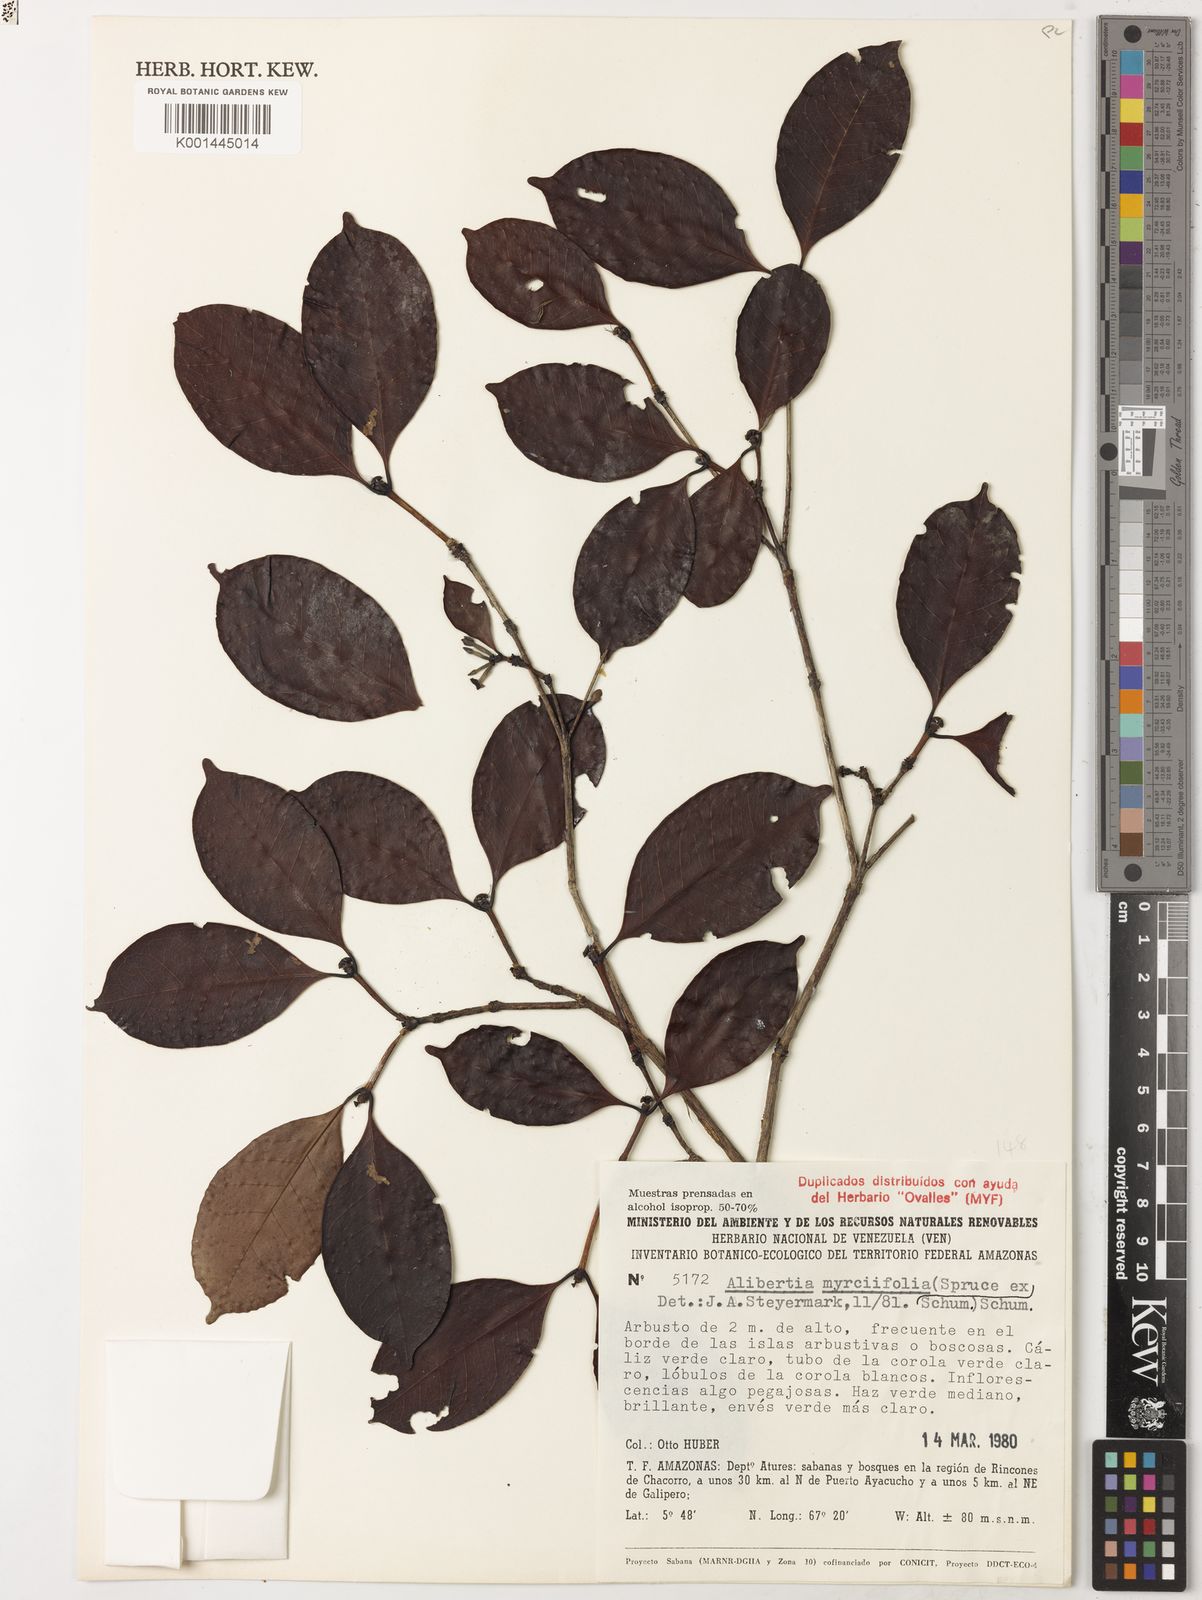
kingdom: Plantae
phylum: Tracheophyta
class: Magnoliopsida
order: Gentianales
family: Rubiaceae
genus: Cordiera
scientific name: Cordiera myrciifolia
